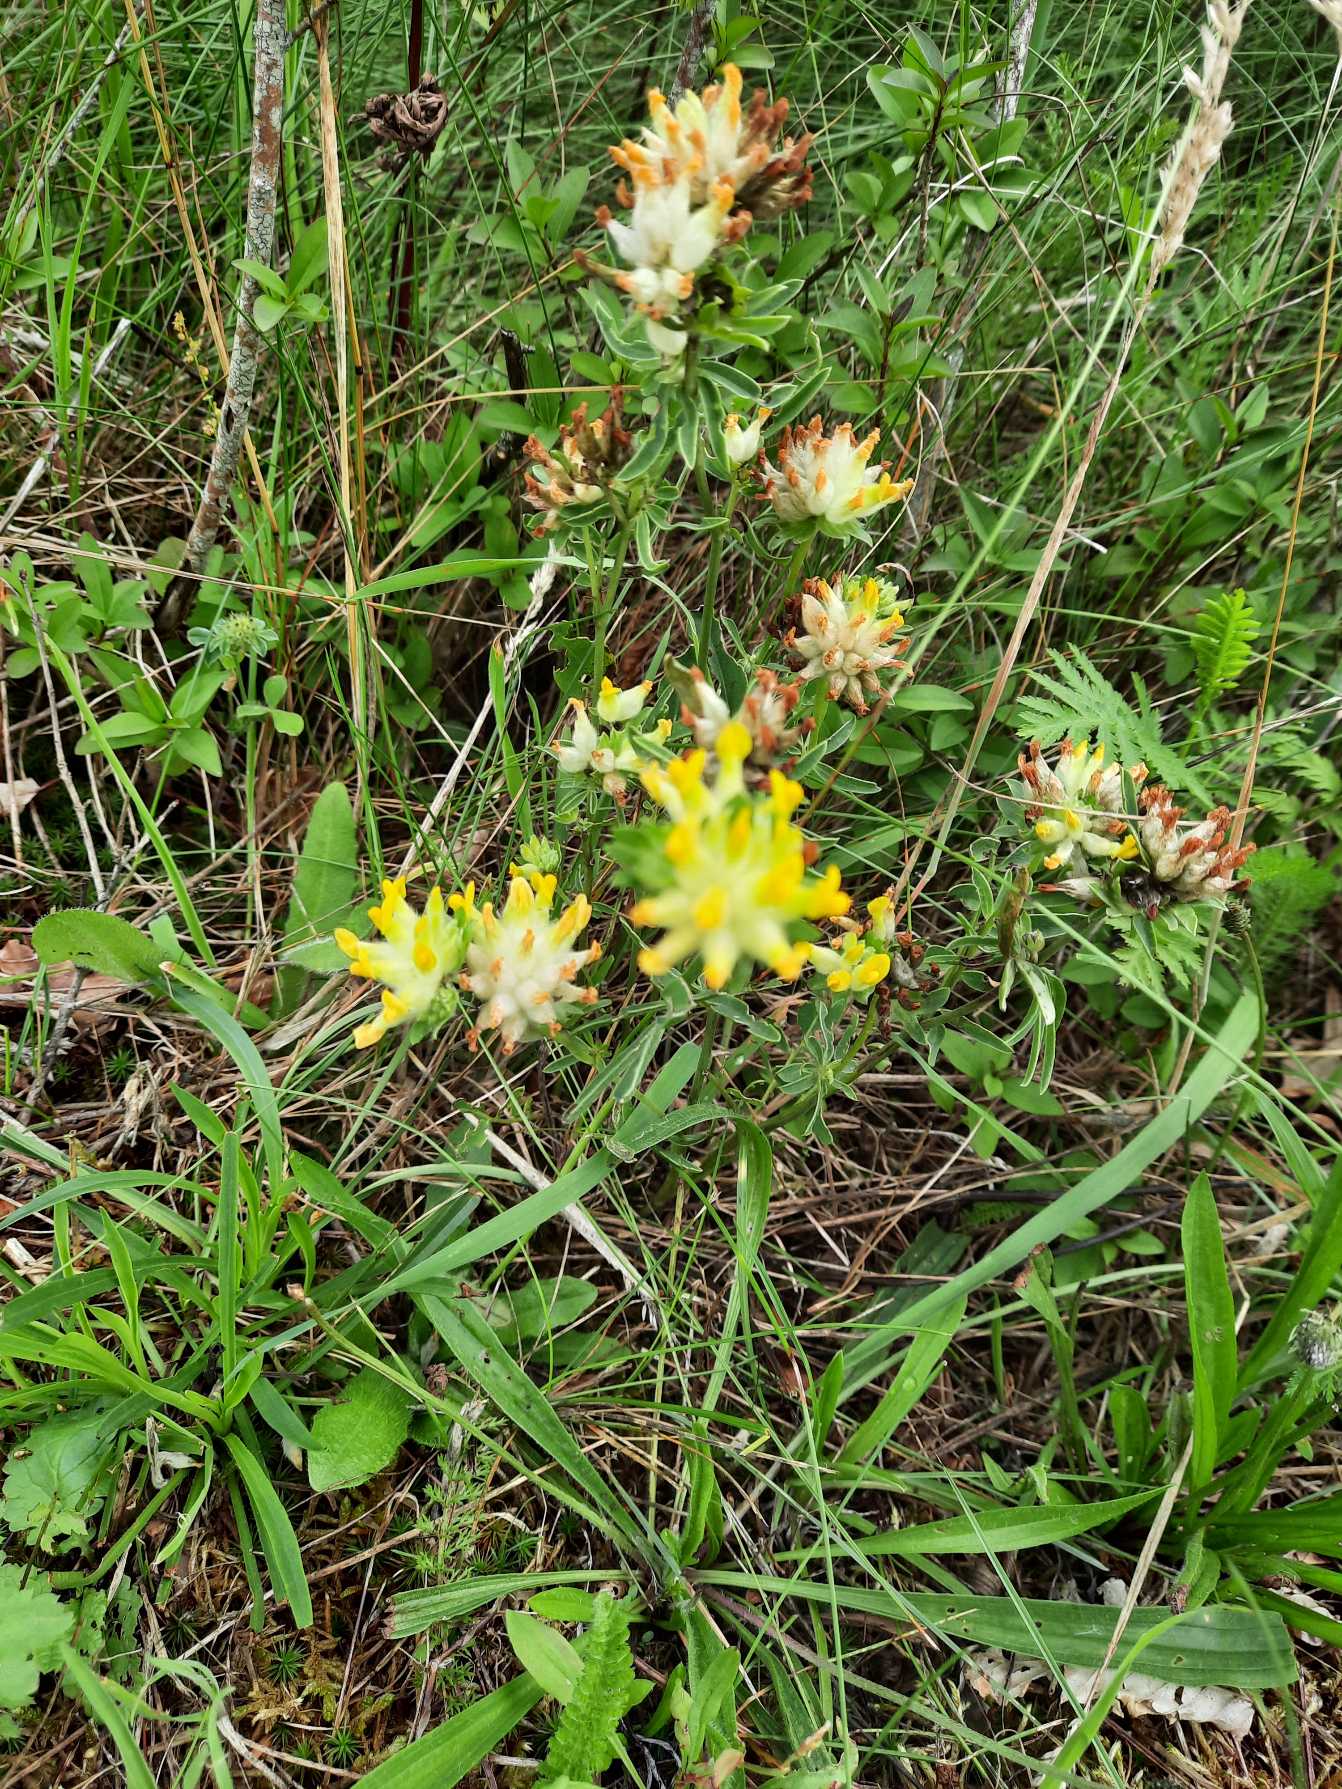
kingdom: Plantae
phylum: Tracheophyta
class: Magnoliopsida
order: Fabales
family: Fabaceae
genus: Anthyllis
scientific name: Anthyllis vulneraria
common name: Rundbælg
